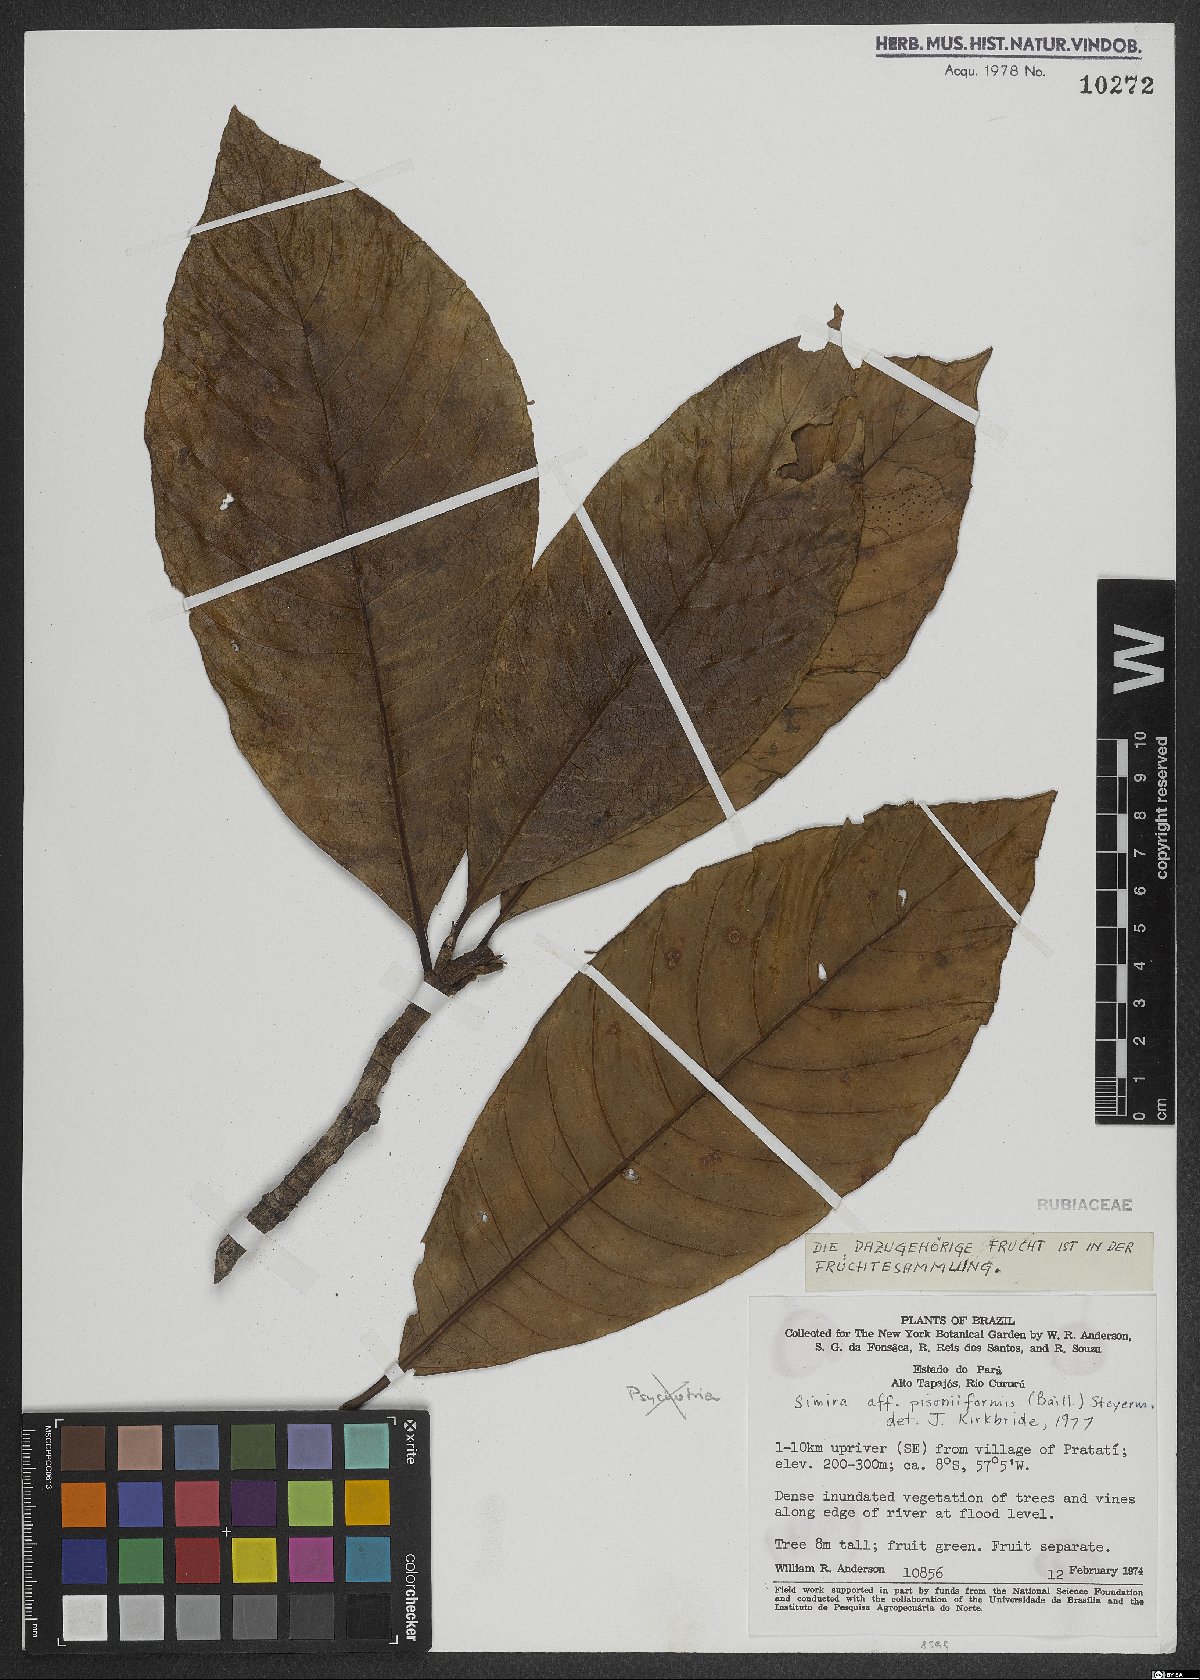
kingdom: Plantae
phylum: Tracheophyta
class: Magnoliopsida
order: Gentianales
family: Rubiaceae
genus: Simira
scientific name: Simira podocarpa
